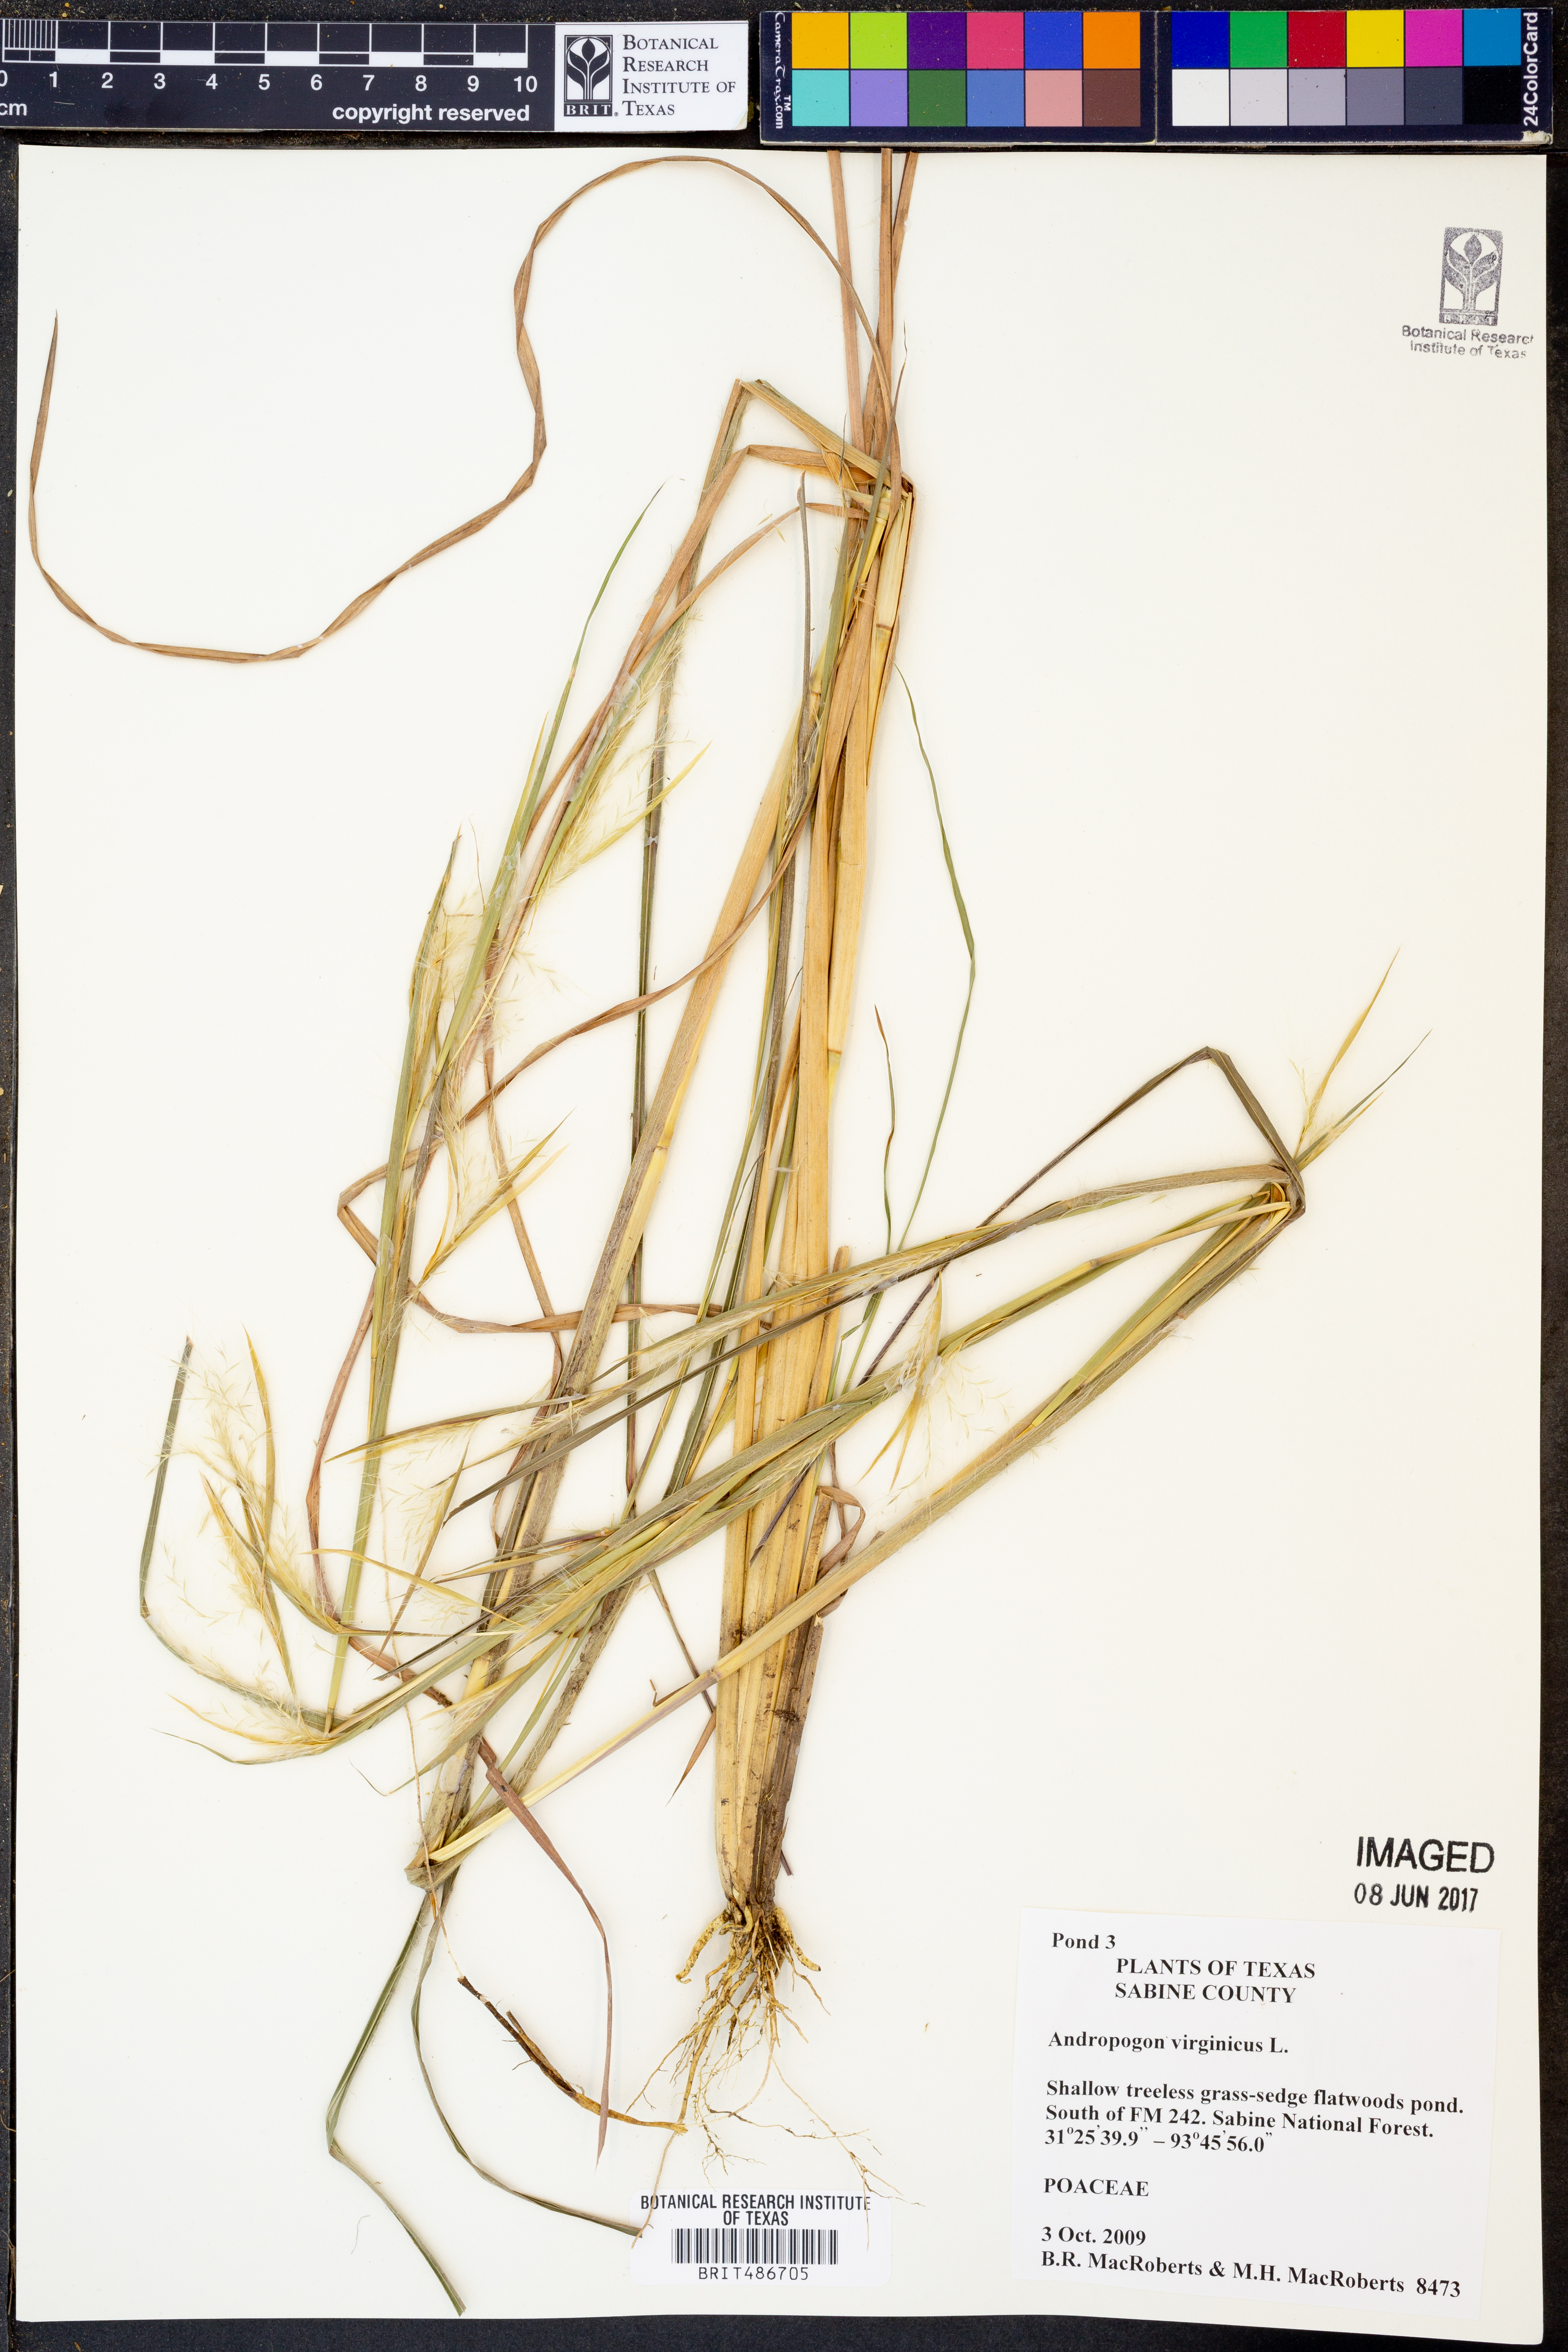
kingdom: Plantae
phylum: Tracheophyta
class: Liliopsida
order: Poales
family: Poaceae
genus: Andropogon
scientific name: Andropogon virginicus
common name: Broomsedge bluestem
